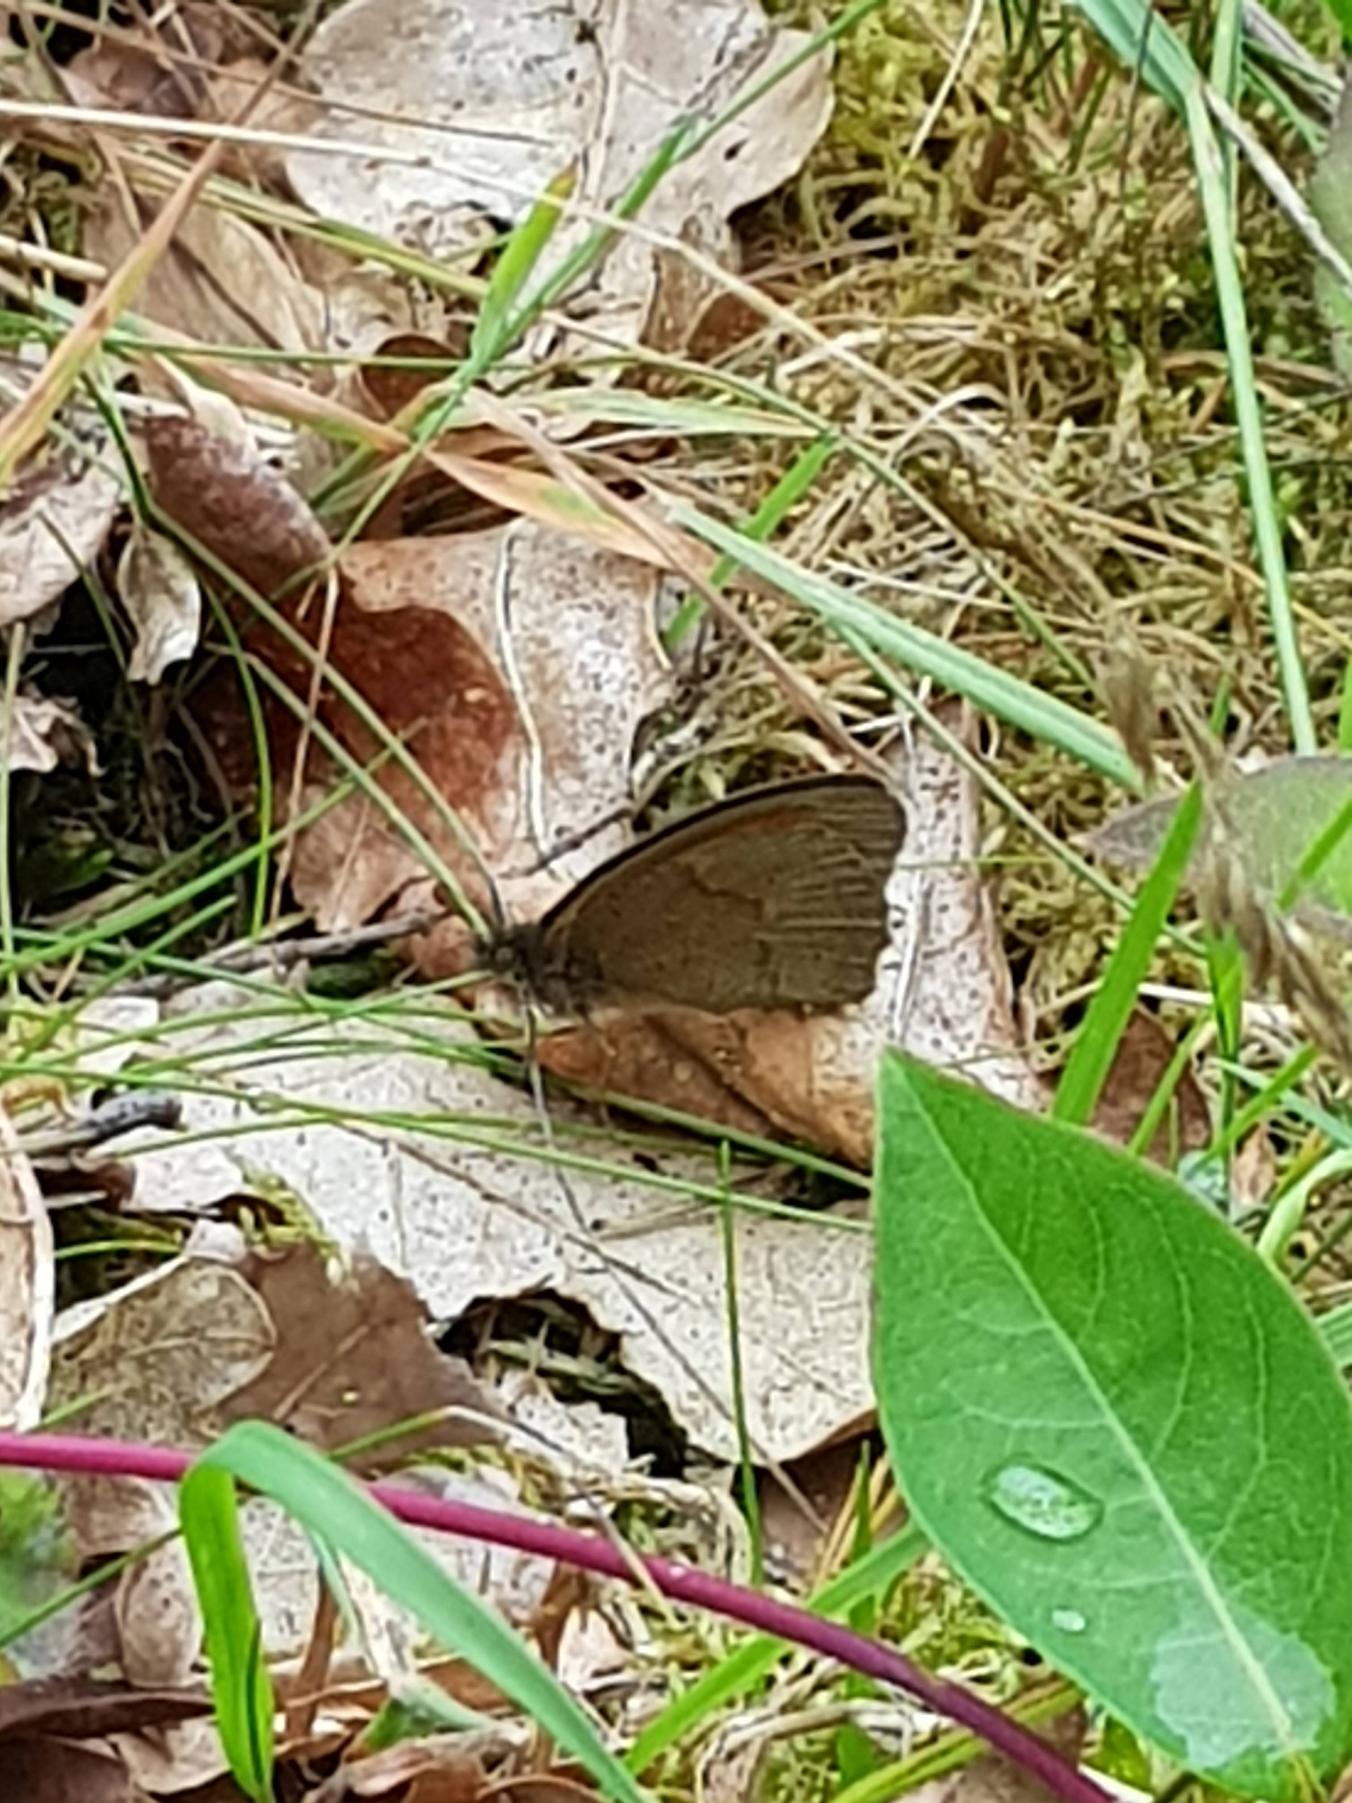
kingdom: Animalia
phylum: Arthropoda
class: Insecta
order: Lepidoptera
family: Nymphalidae
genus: Maniola
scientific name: Maniola jurtina
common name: Græsrandøje
